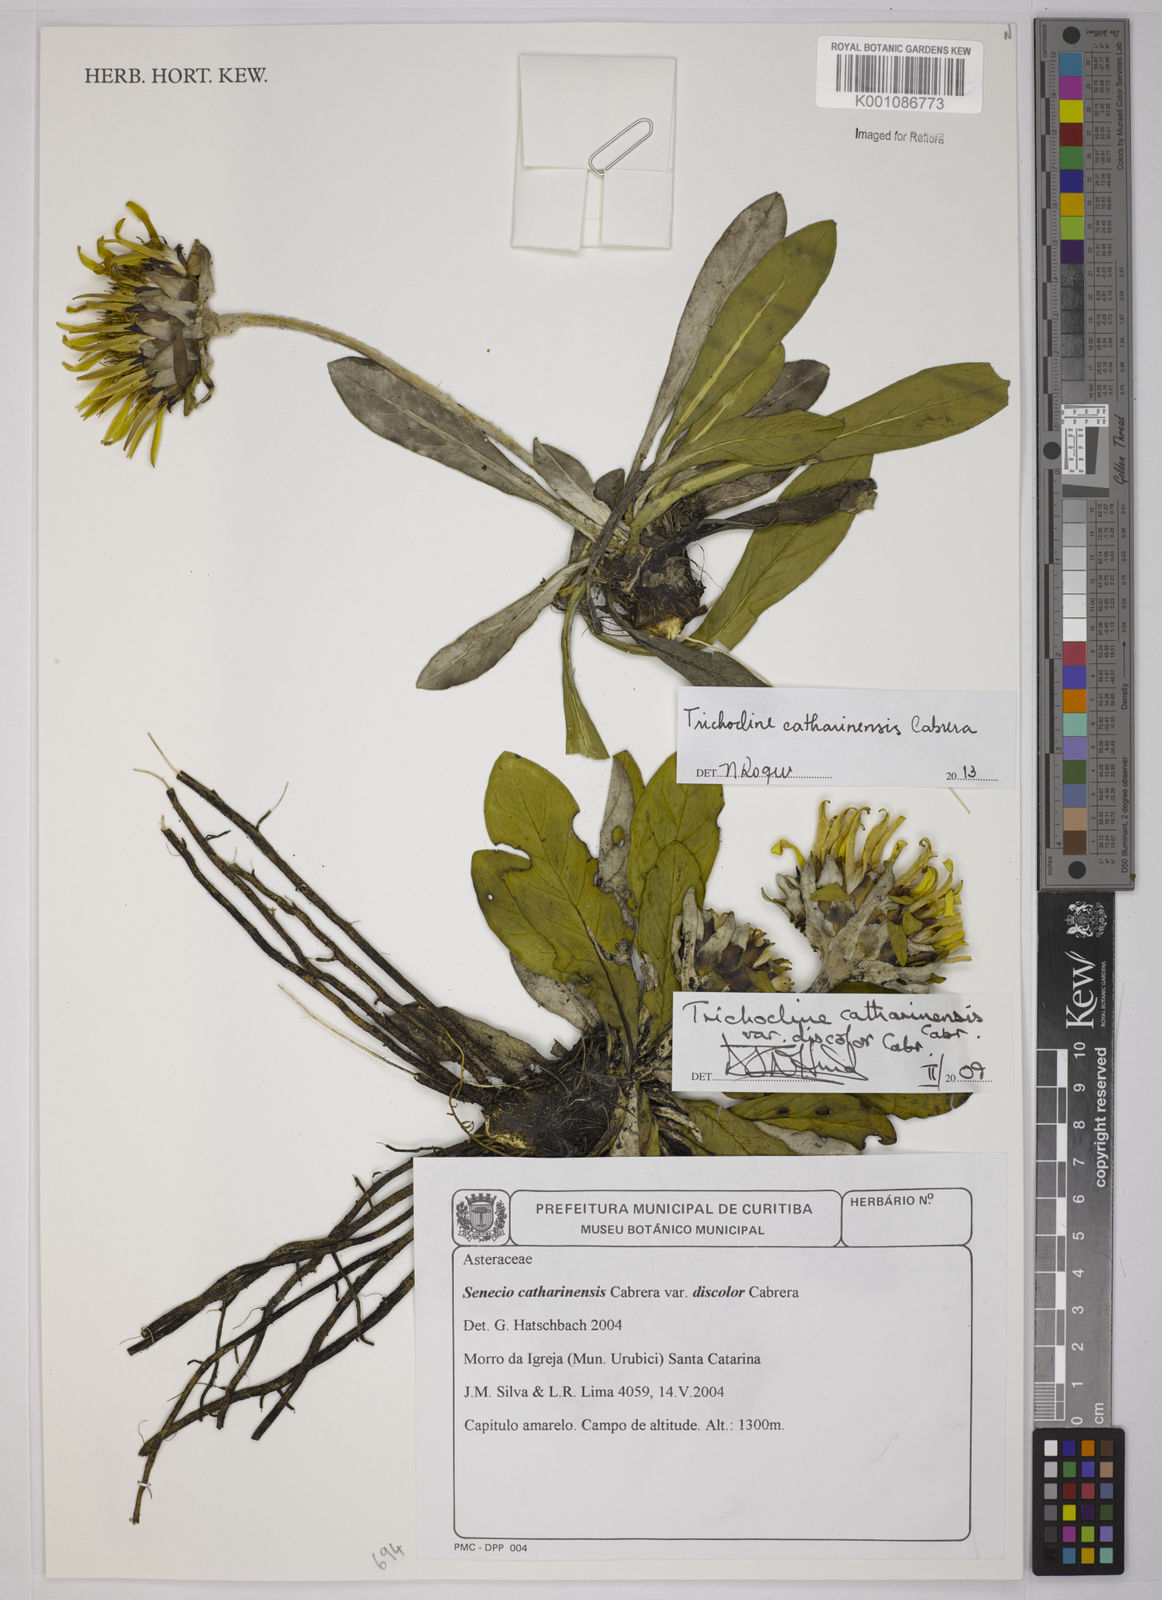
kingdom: Plantae
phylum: Tracheophyta
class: Magnoliopsida
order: Asterales
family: Asteraceae
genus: Trichocline
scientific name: Trichocline catharinensis
